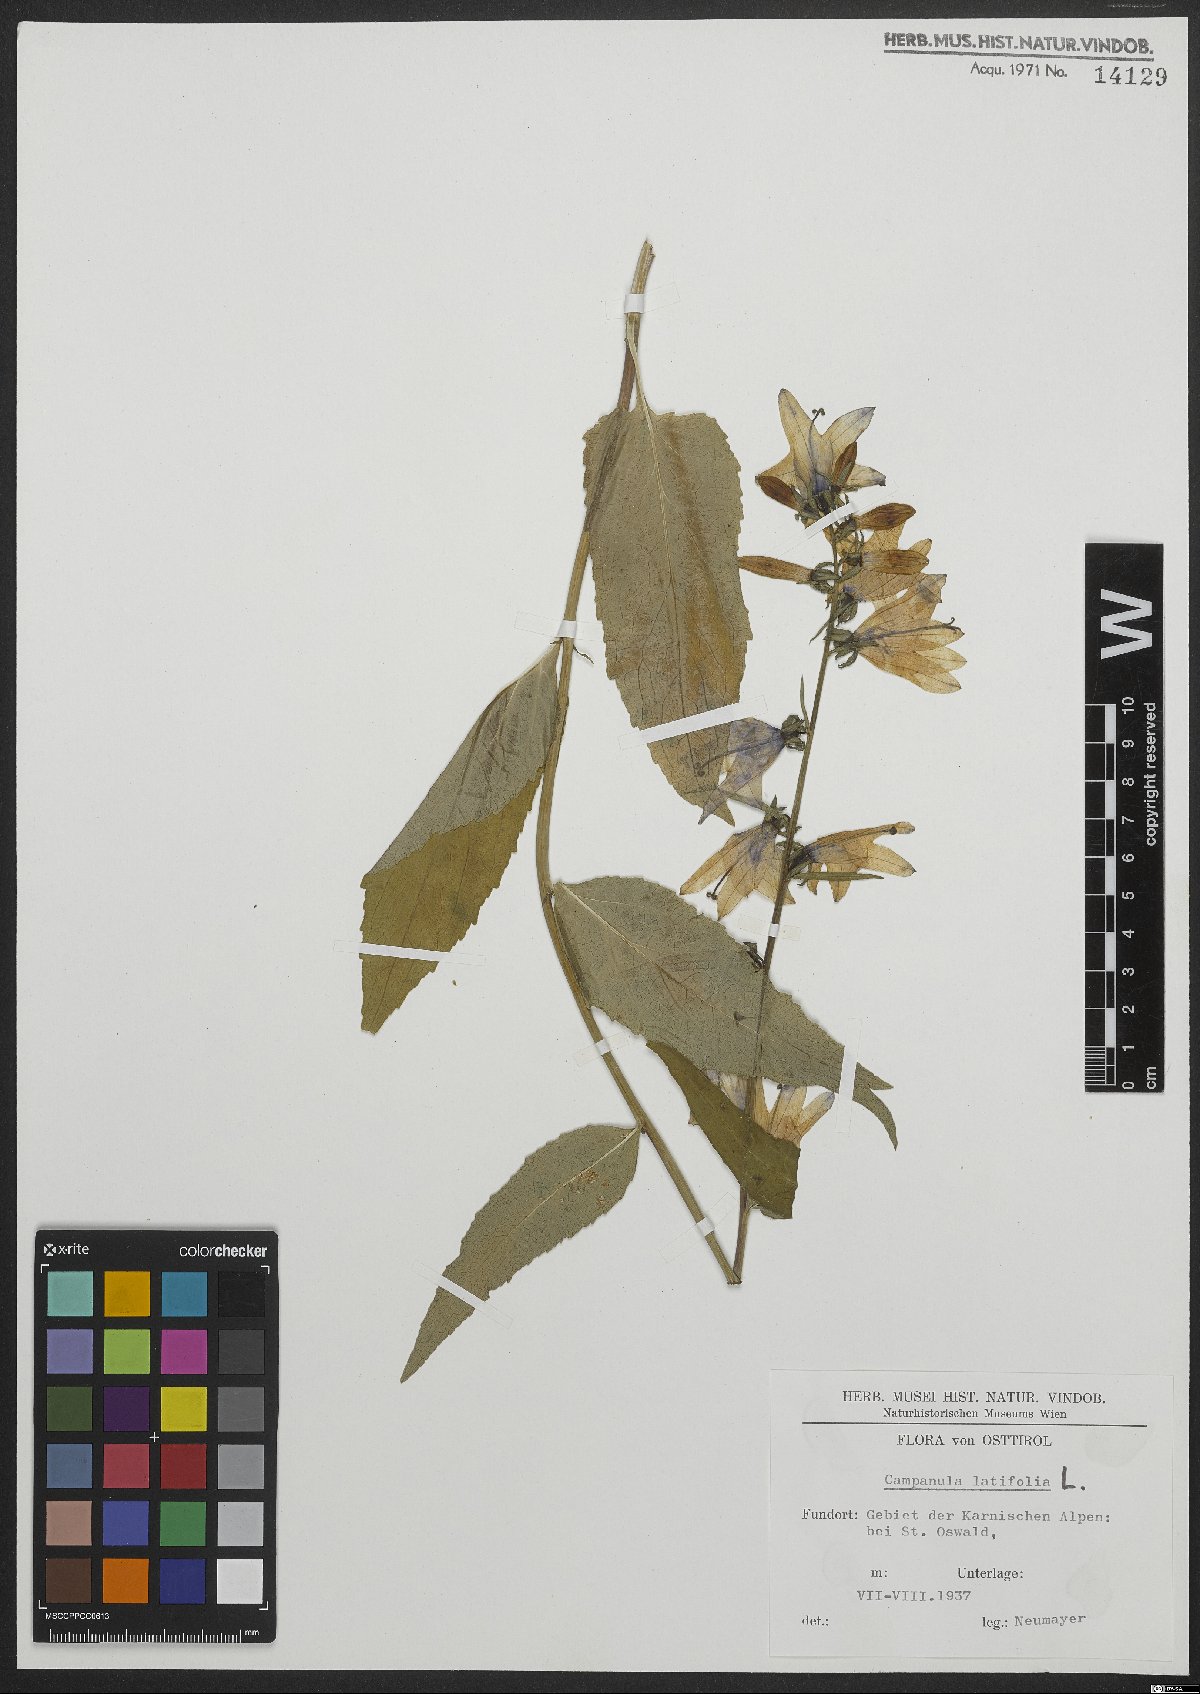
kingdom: Plantae
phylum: Tracheophyta
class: Magnoliopsida
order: Asterales
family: Campanulaceae
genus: Campanula
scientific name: Campanula latifolia
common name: Giant bellflower
